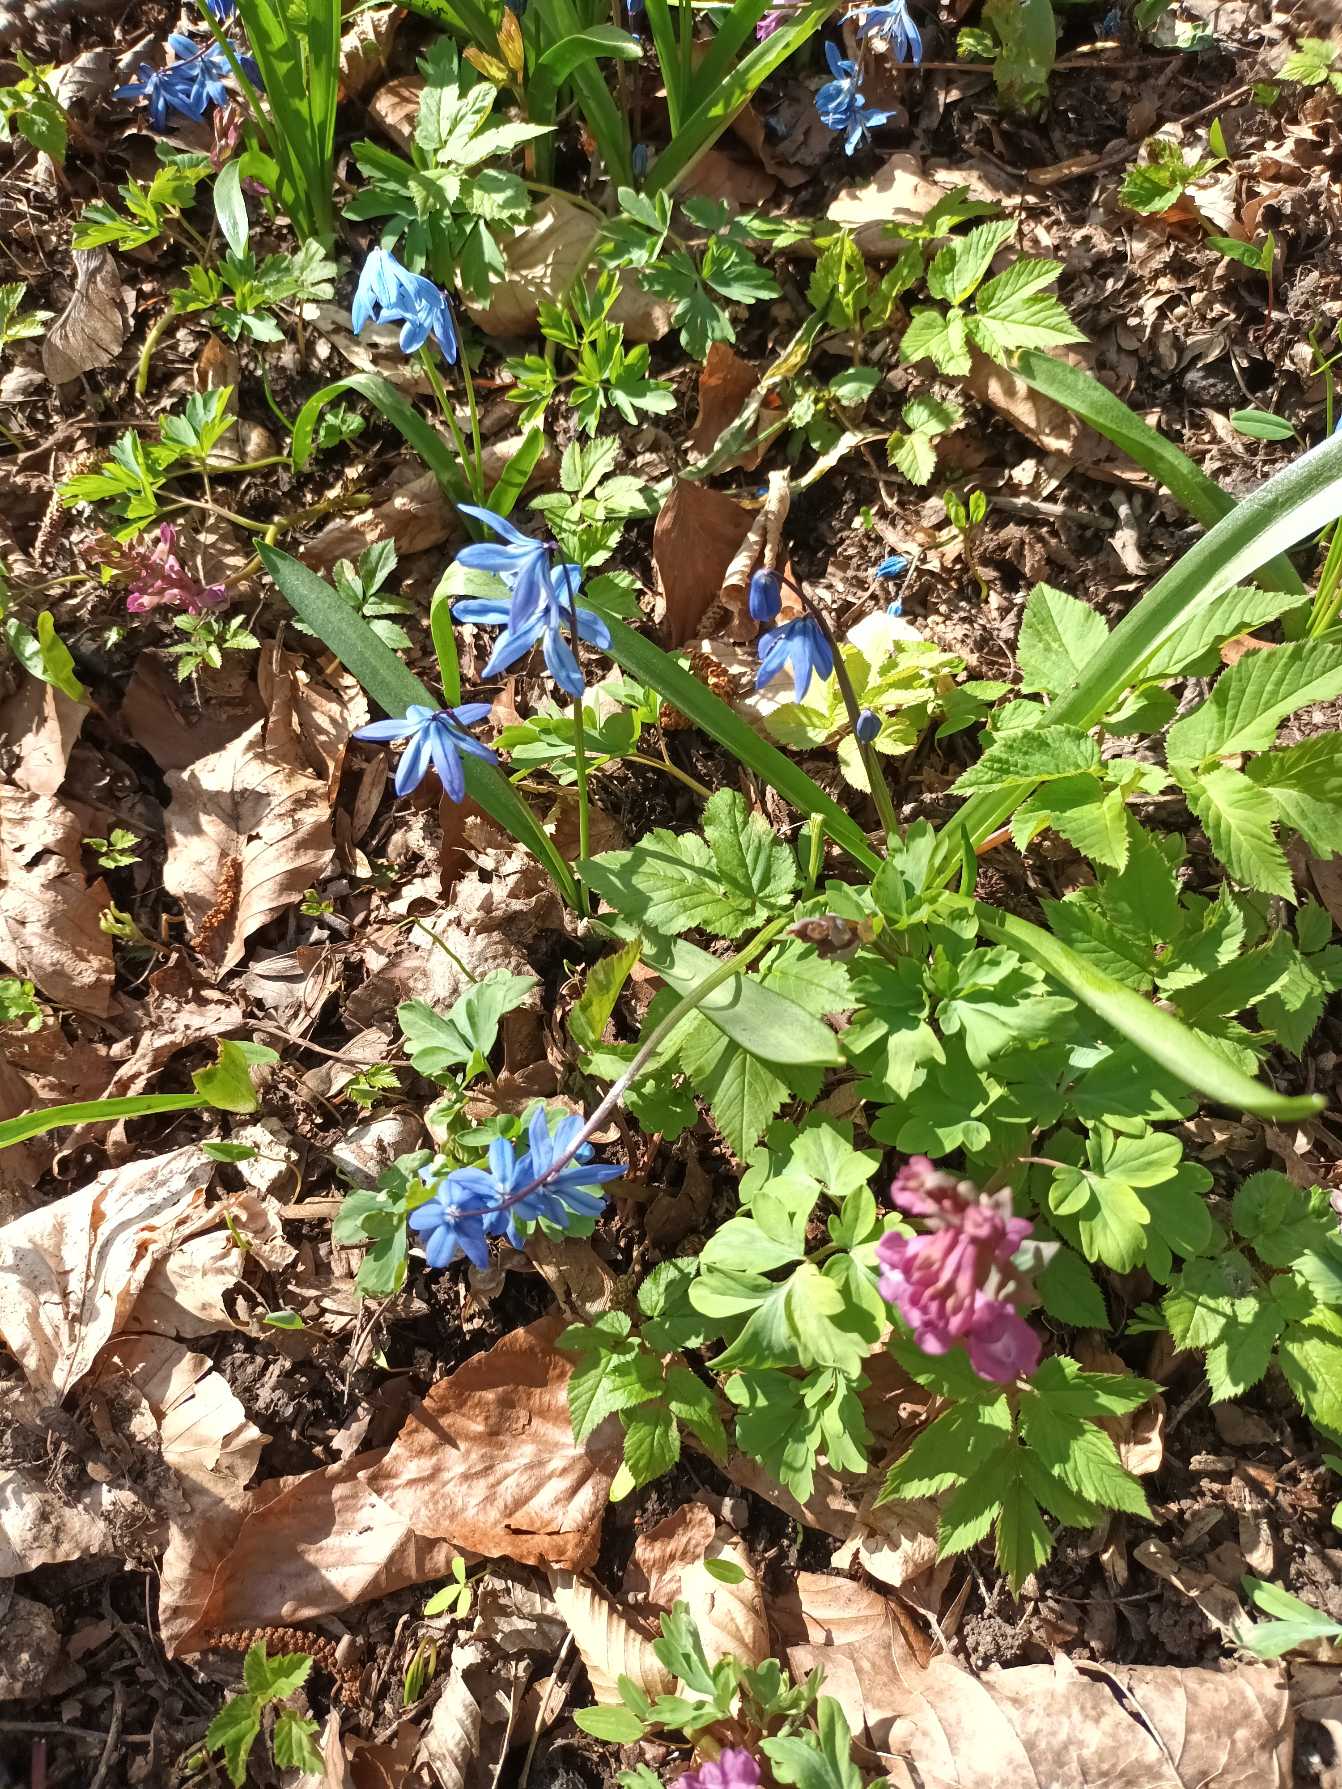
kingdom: Plantae
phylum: Tracheophyta
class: Liliopsida
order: Asparagales
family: Asparagaceae
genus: Scilla
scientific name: Scilla siberica
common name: Russisk skilla
